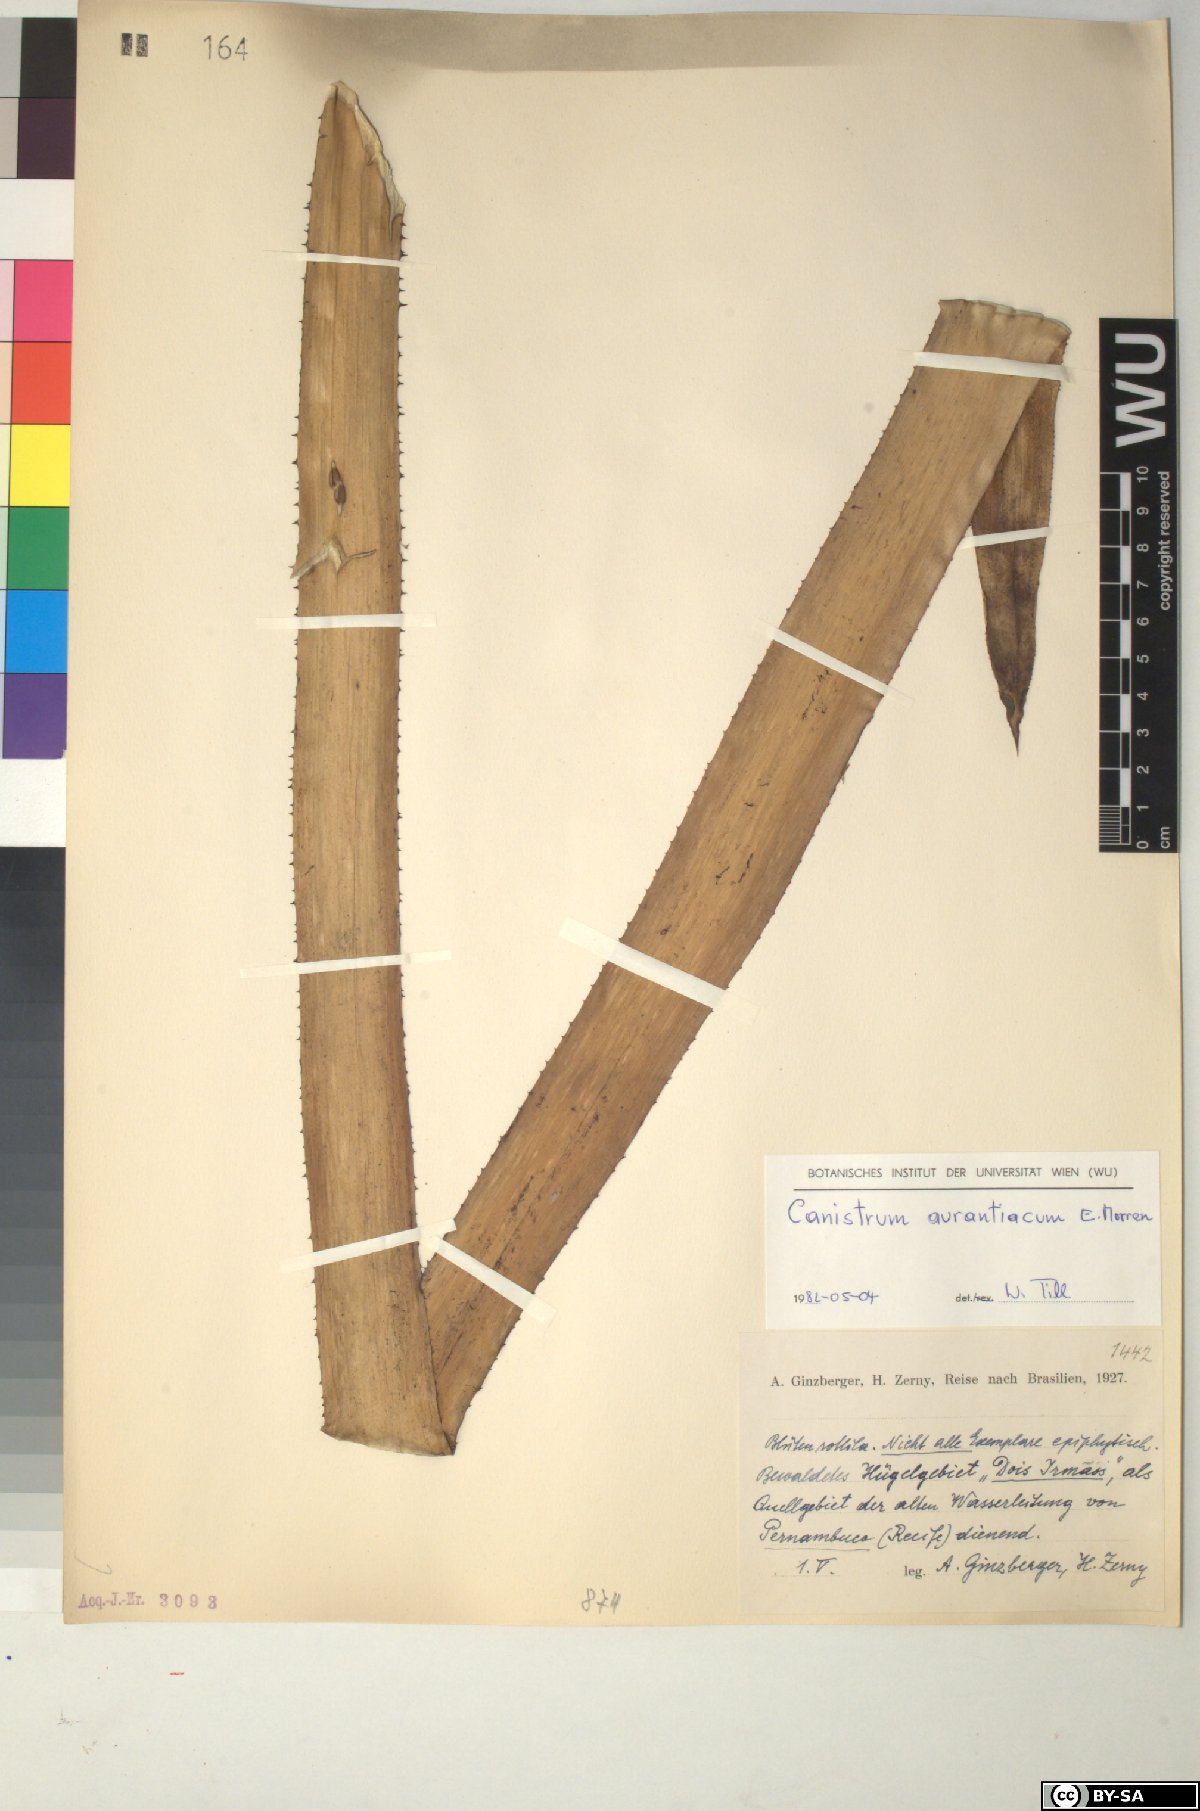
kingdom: Plantae
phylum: Tracheophyta
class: Liliopsida
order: Poales
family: Bromeliaceae
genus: Canistrum
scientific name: Canistrum aurantiacum
